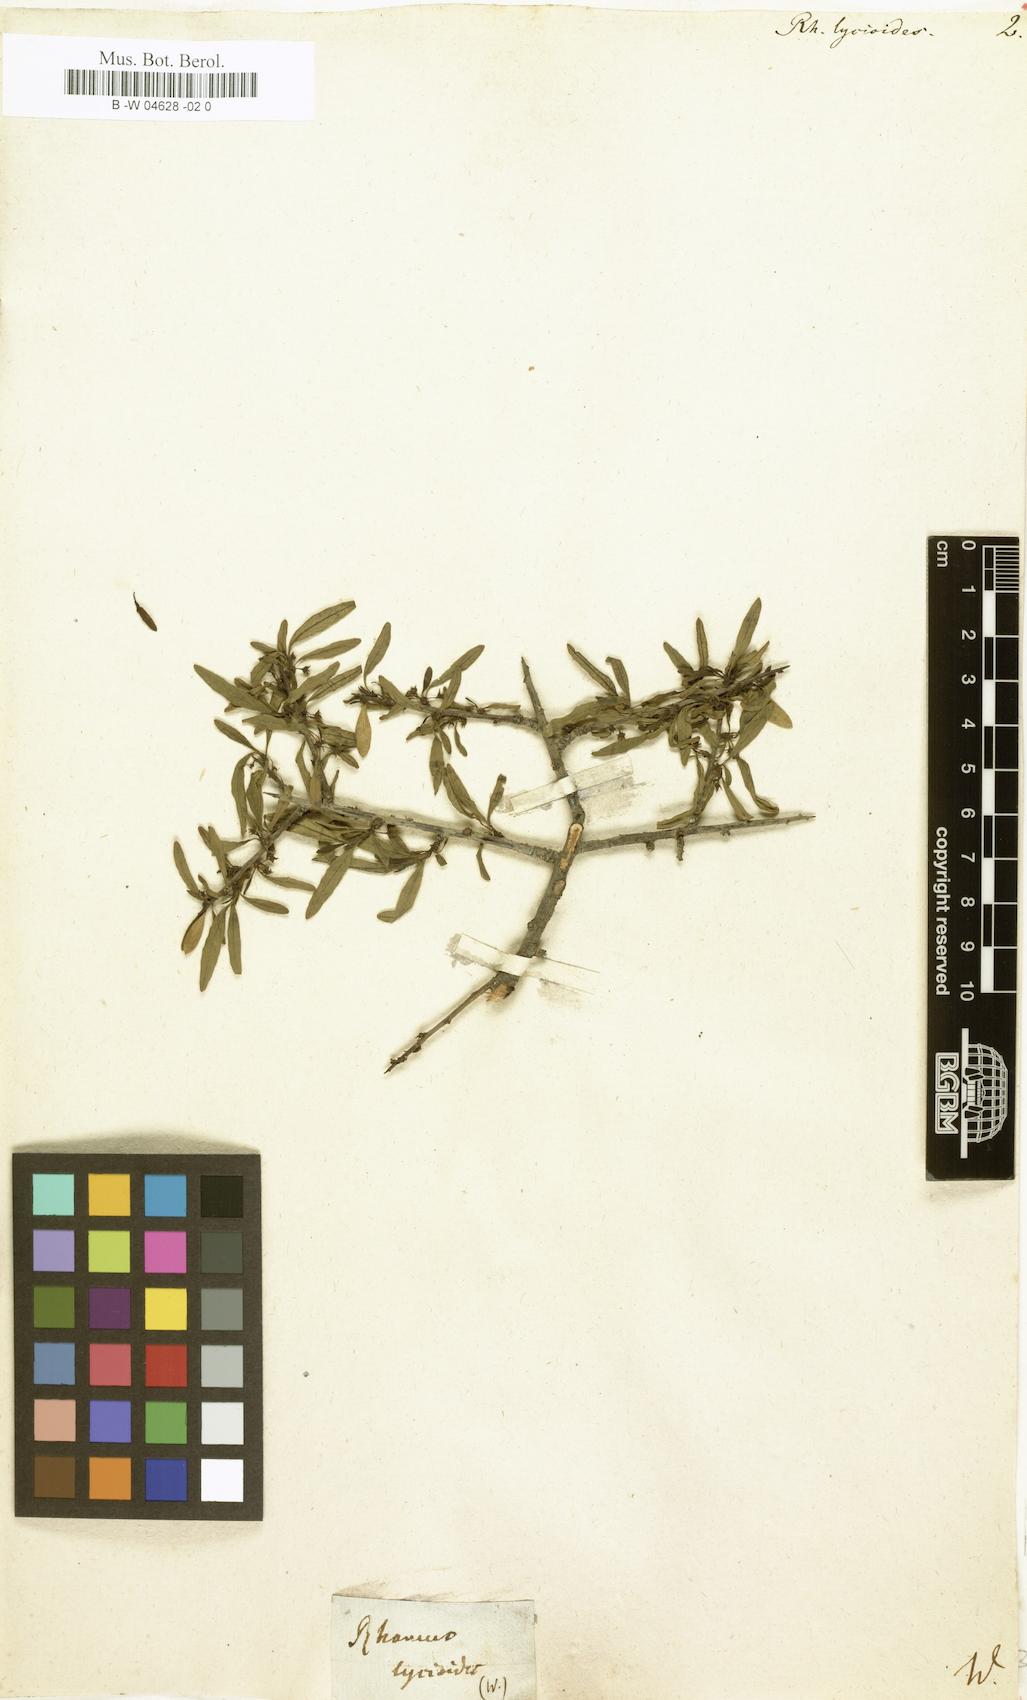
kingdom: Plantae
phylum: Tracheophyta
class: Magnoliopsida
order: Rosales
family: Rhamnaceae
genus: Rhamnus
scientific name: Rhamnus lycioides
